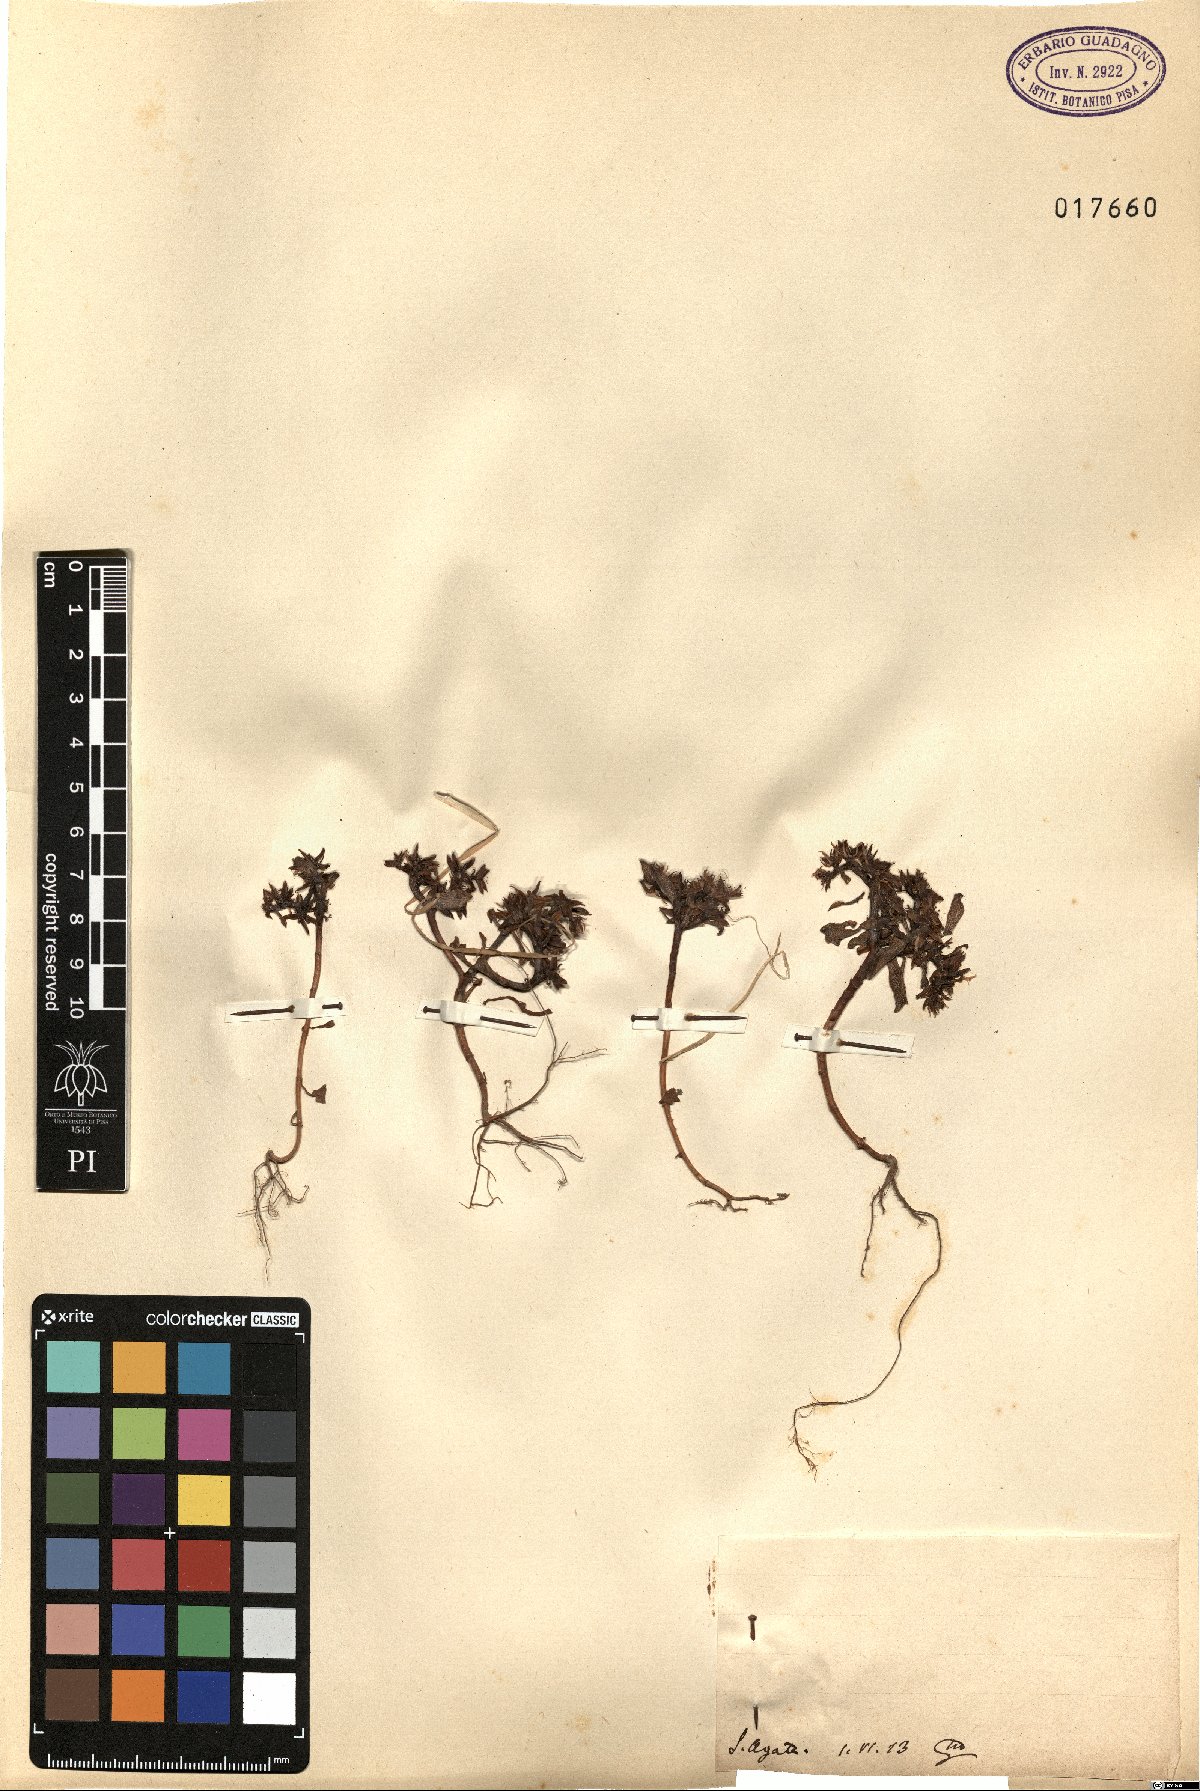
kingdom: Plantae
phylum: Tracheophyta
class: Magnoliopsida
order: Saxifragales
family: Crassulaceae
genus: Sedum
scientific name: Sedum
